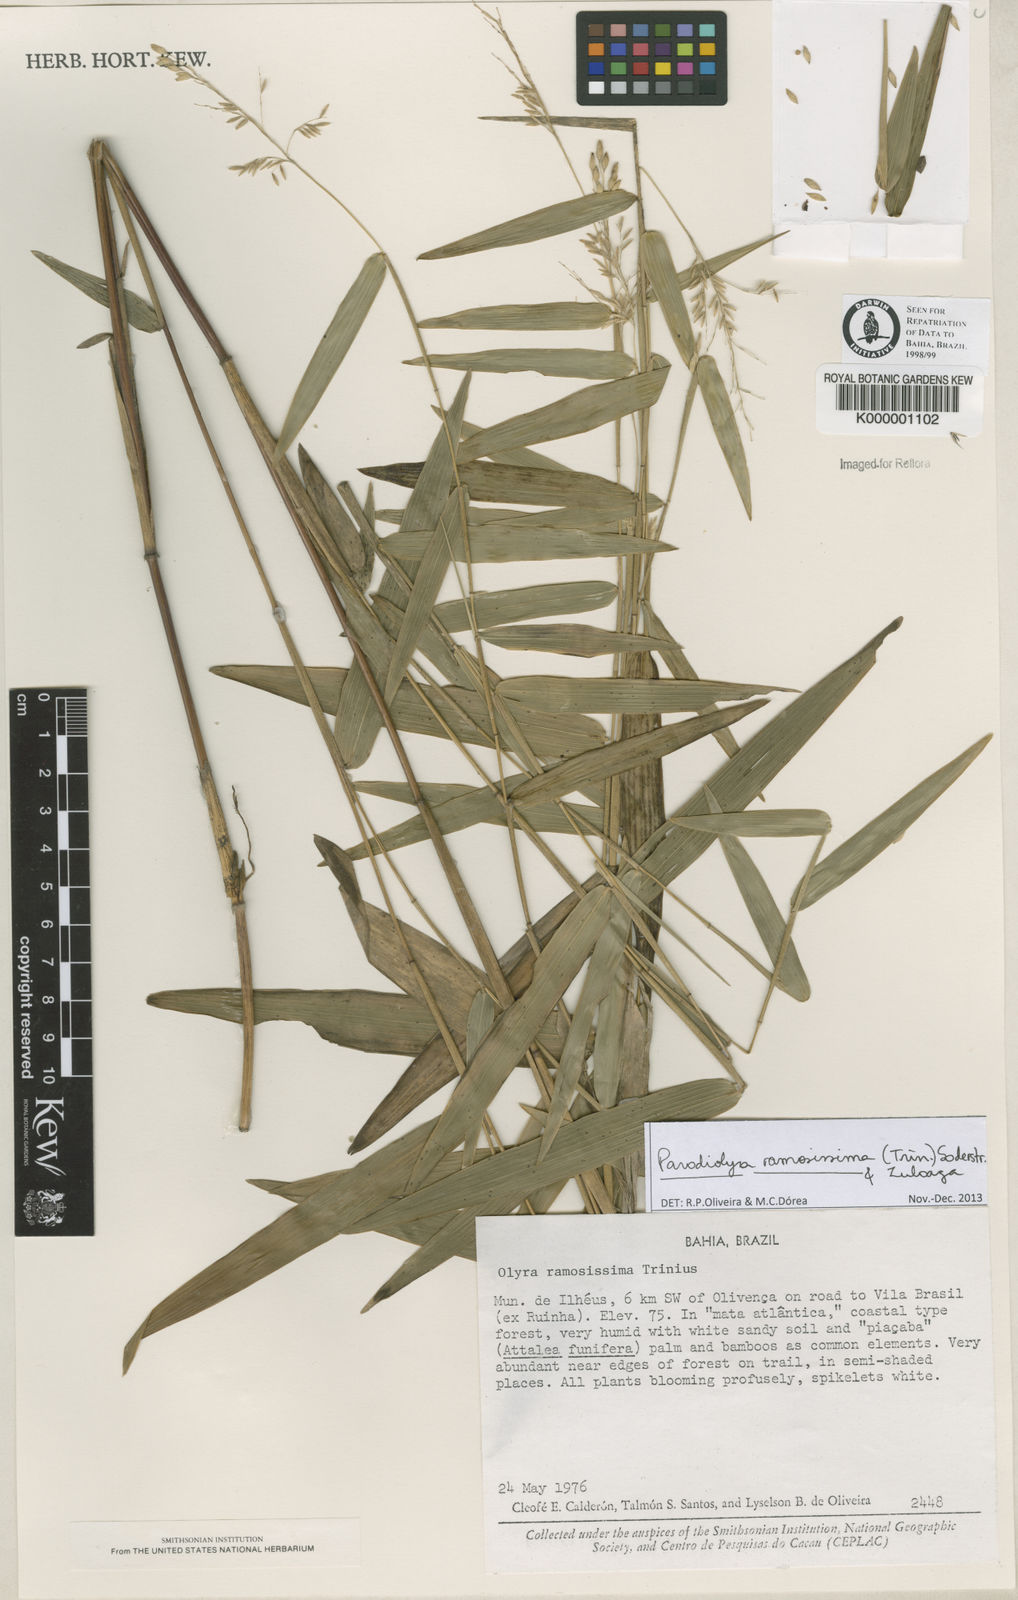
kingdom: Plantae
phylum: Tracheophyta
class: Liliopsida
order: Poales
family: Poaceae
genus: Parodiolyra
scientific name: Parodiolyra ramosissima
